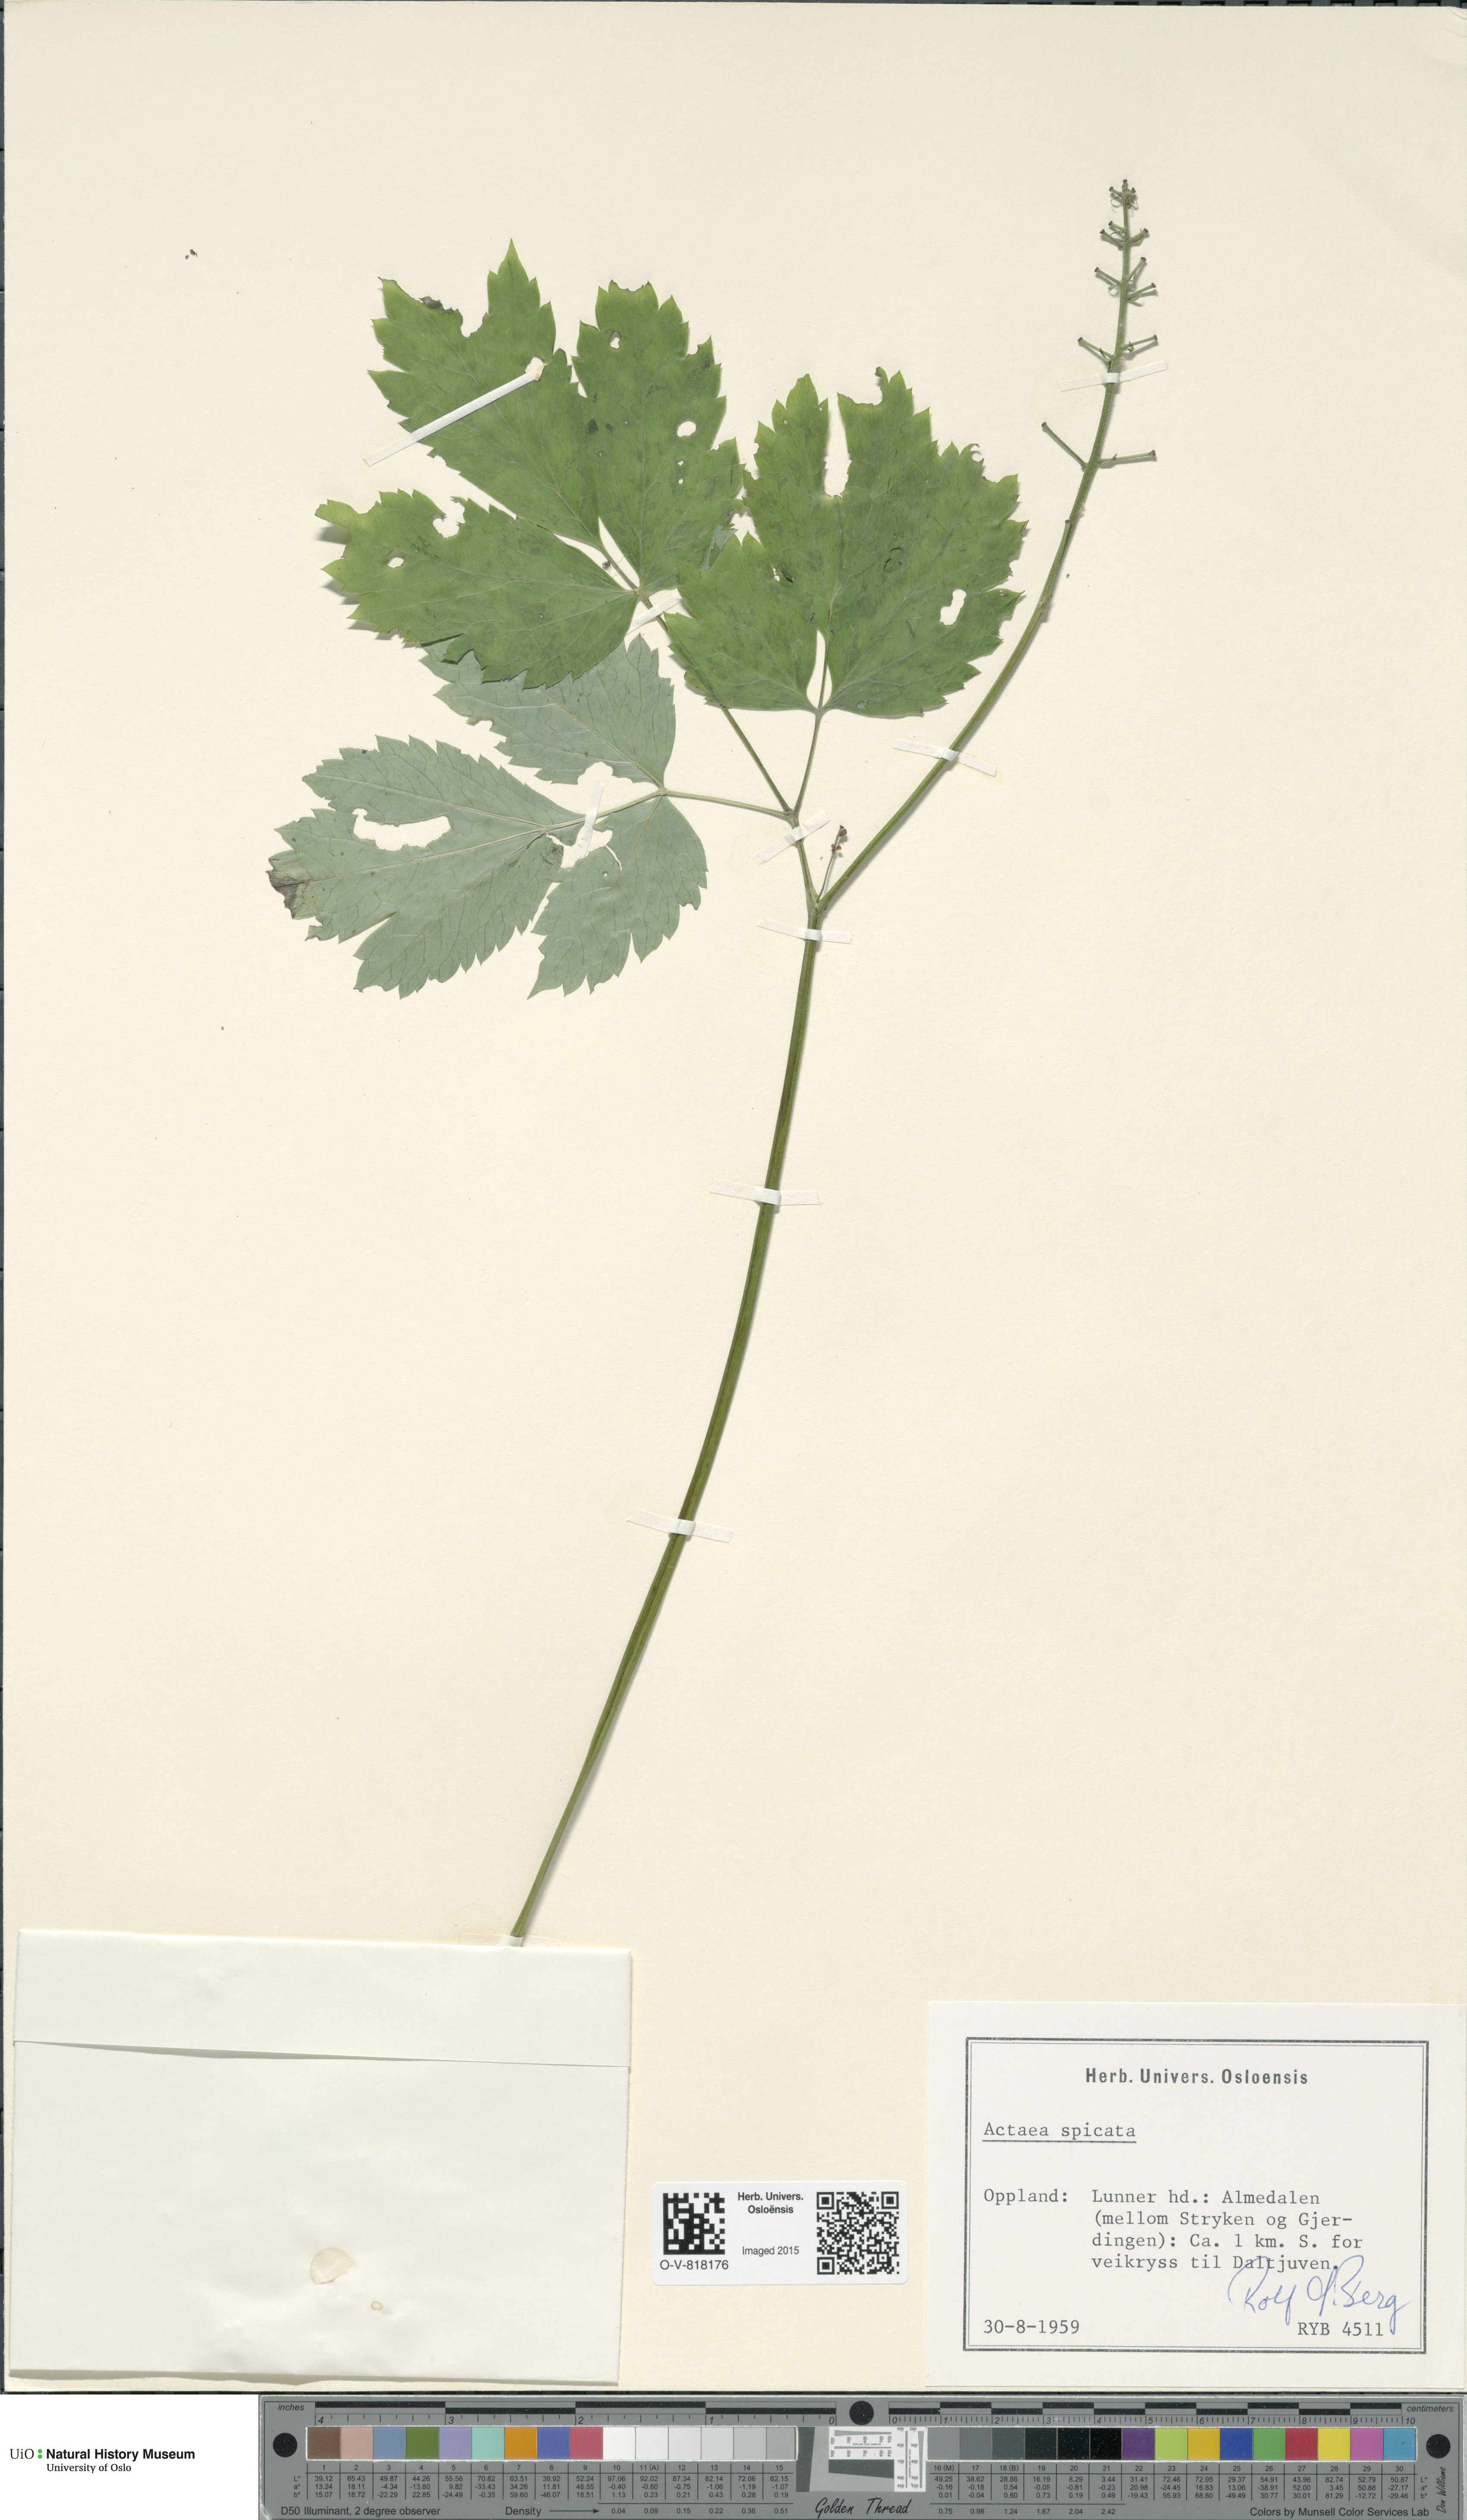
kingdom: Plantae
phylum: Tracheophyta
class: Magnoliopsida
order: Ranunculales
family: Ranunculaceae
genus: Actaea
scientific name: Actaea spicata
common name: Baneberry
